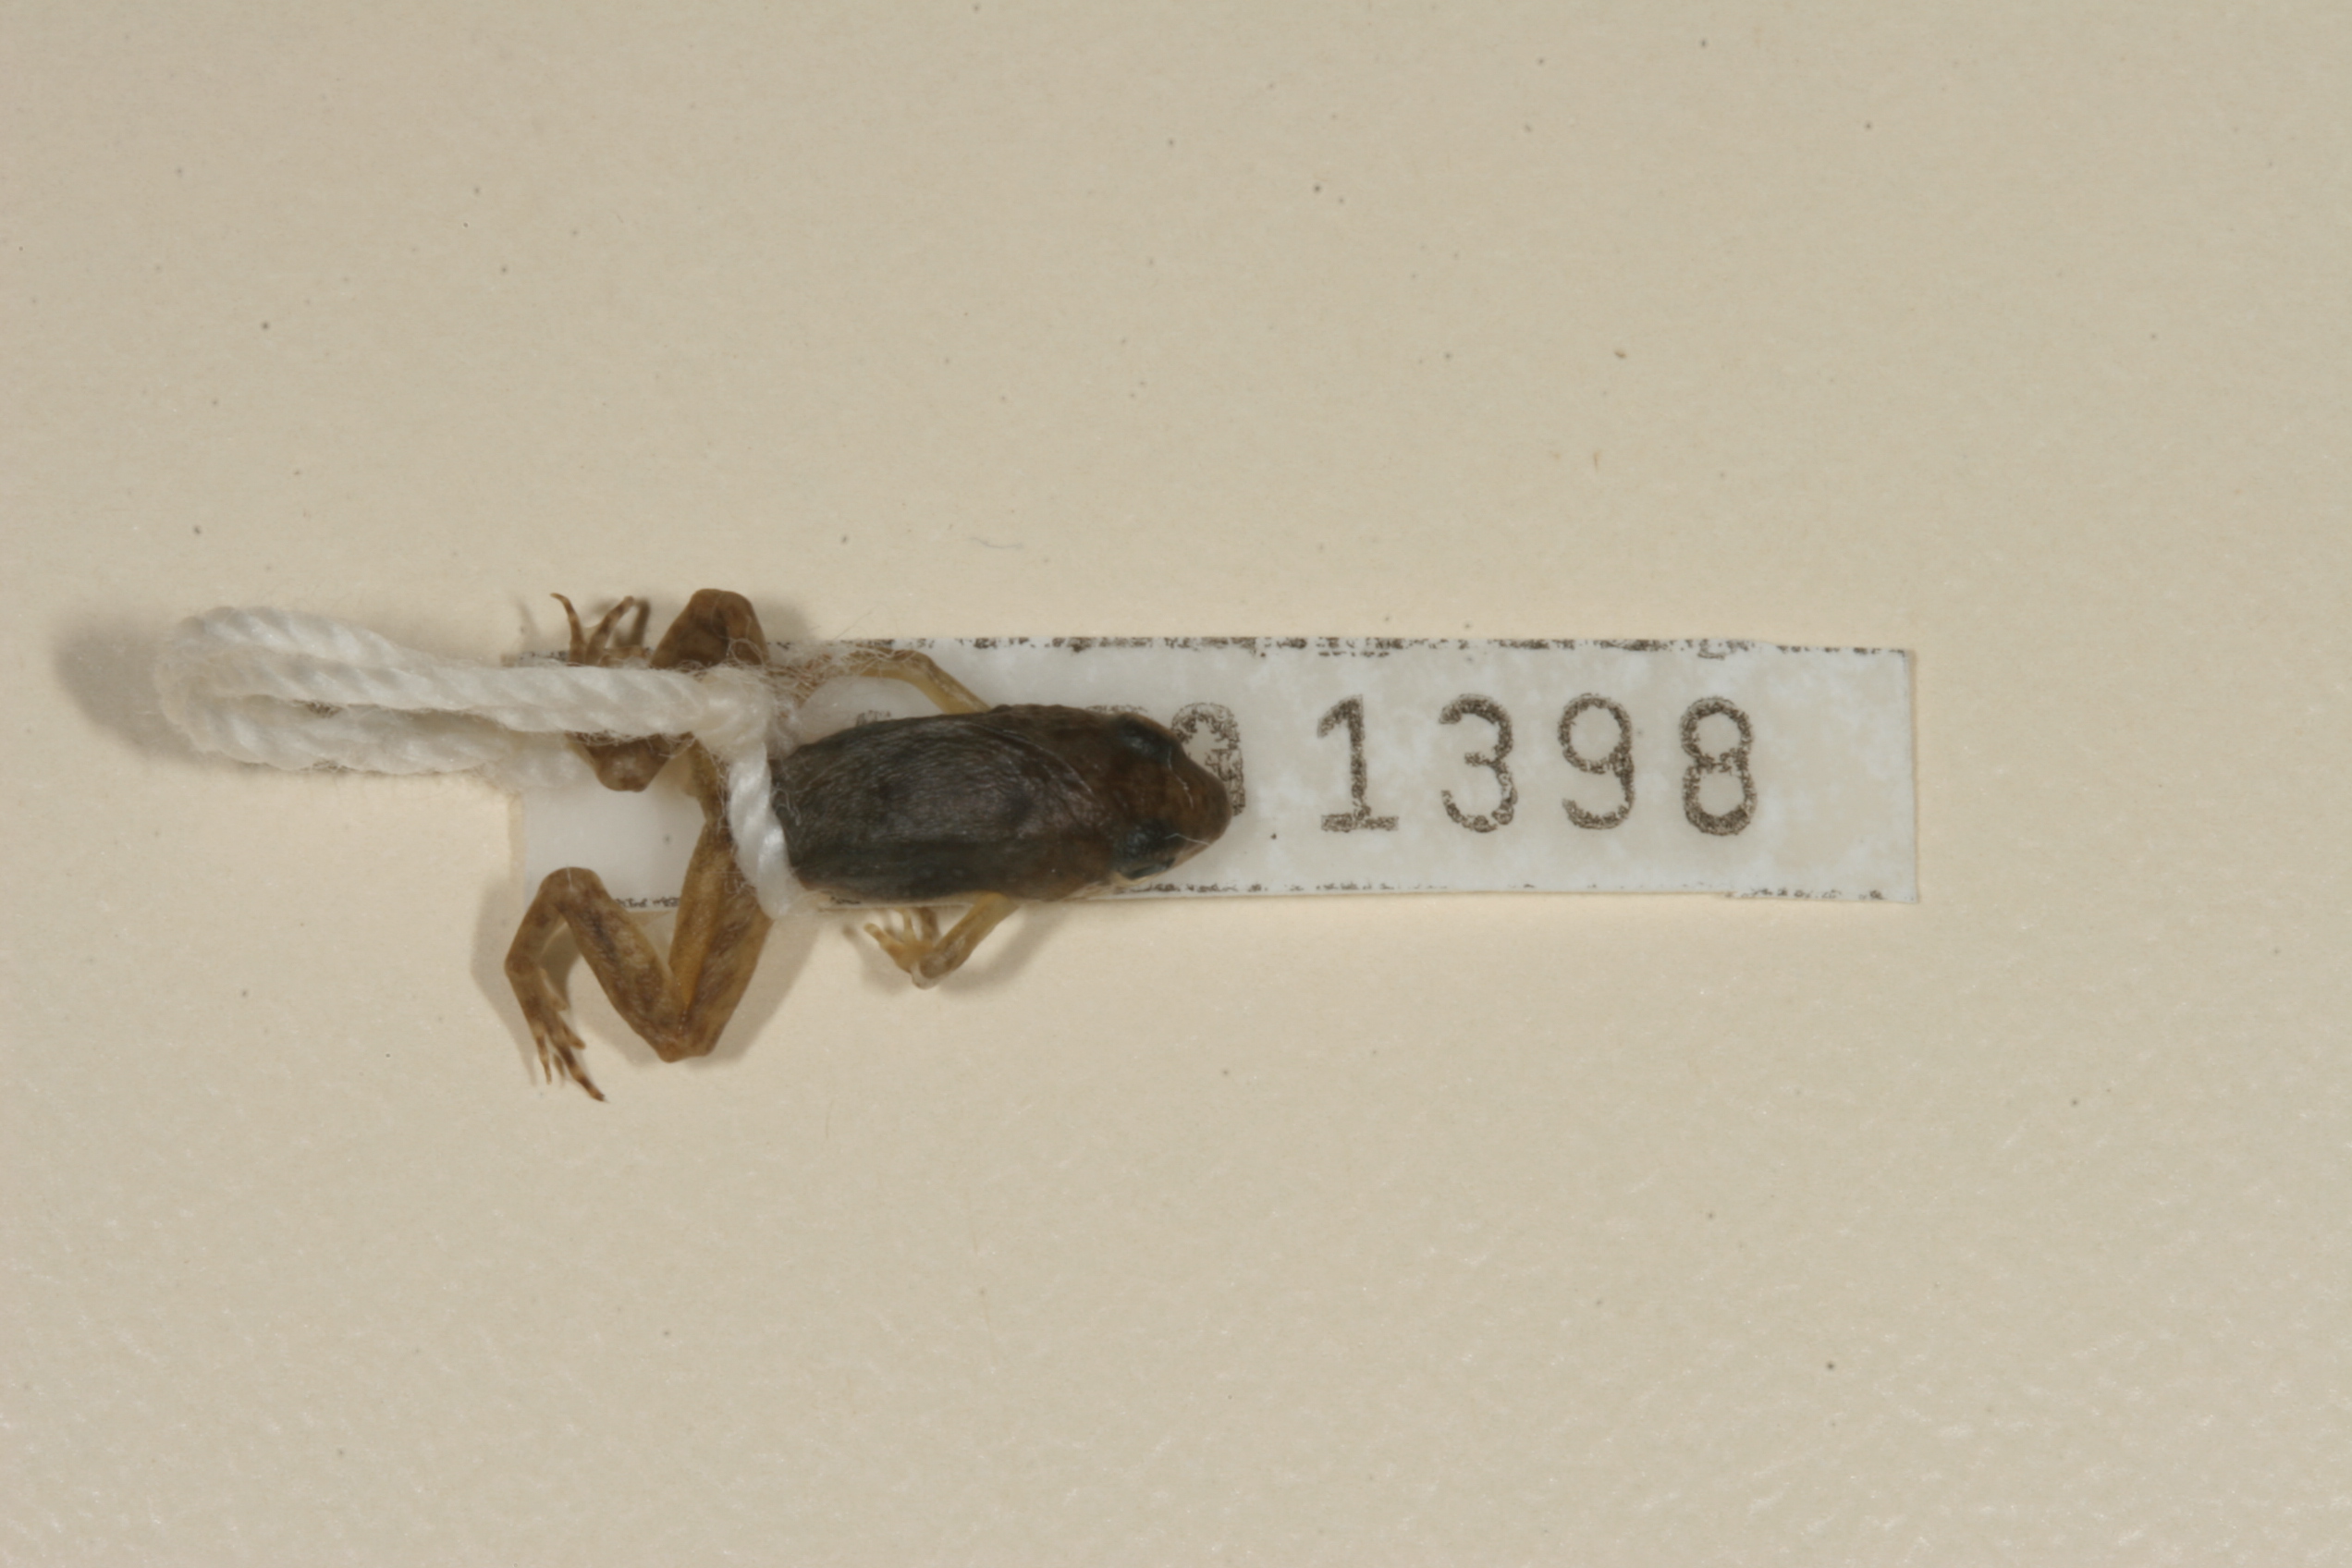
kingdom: Animalia
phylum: Chordata
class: Amphibia
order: Anura
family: Phrynobatrachidae
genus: Phrynobatrachus
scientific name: Phrynobatrachus mababiensis
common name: Dwarf puddle frog
